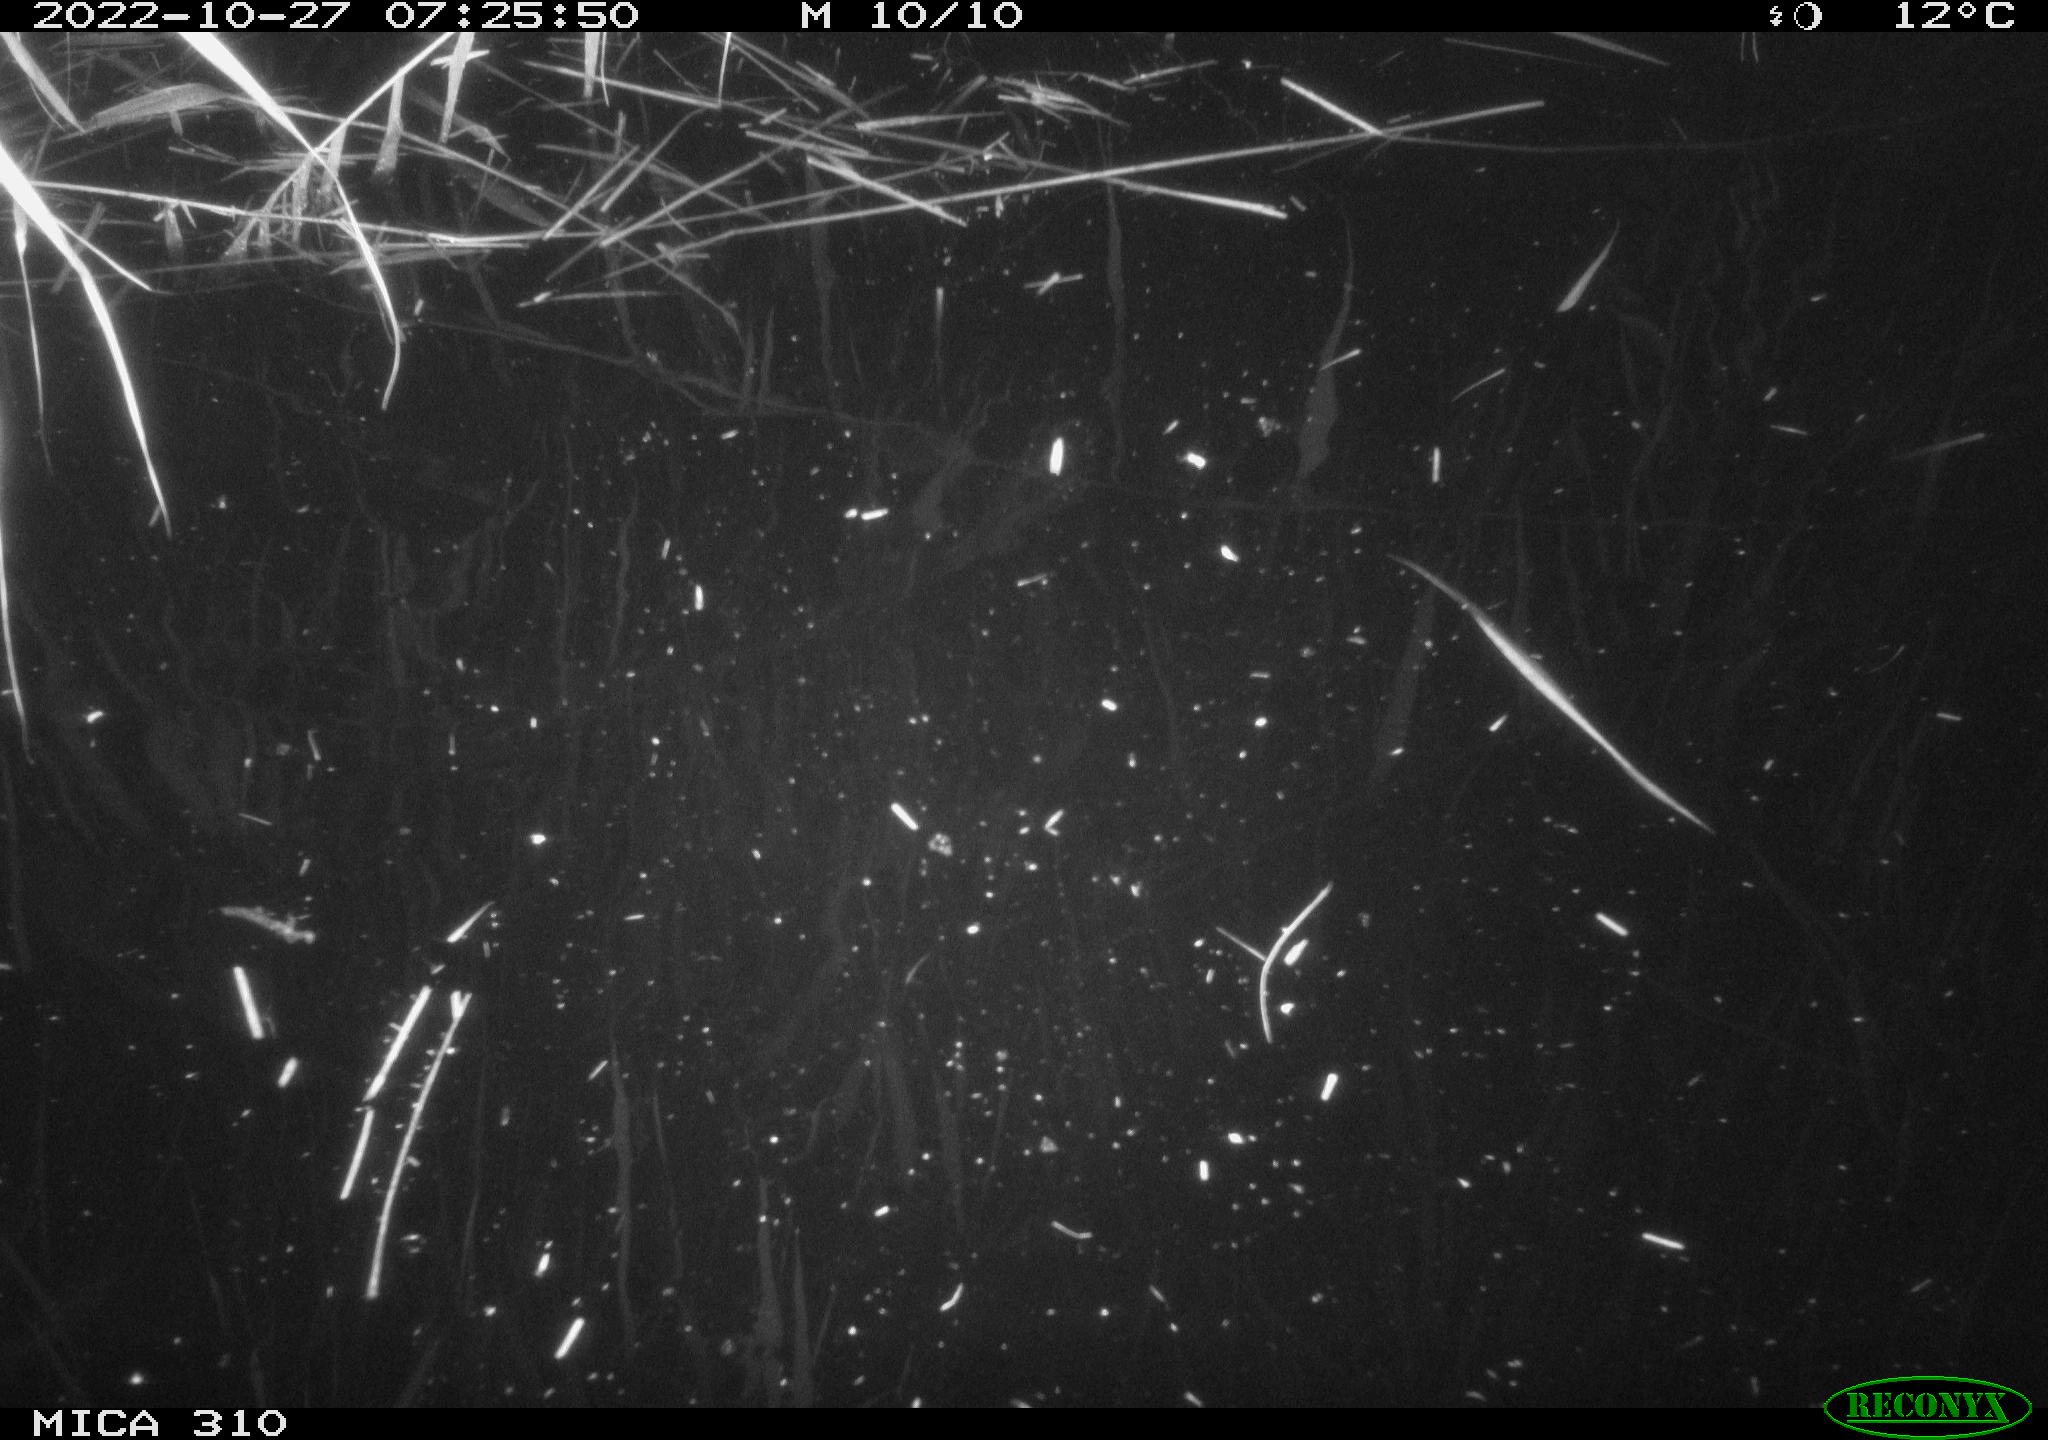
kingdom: Animalia
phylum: Chordata
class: Mammalia
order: Rodentia
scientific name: Rodentia
